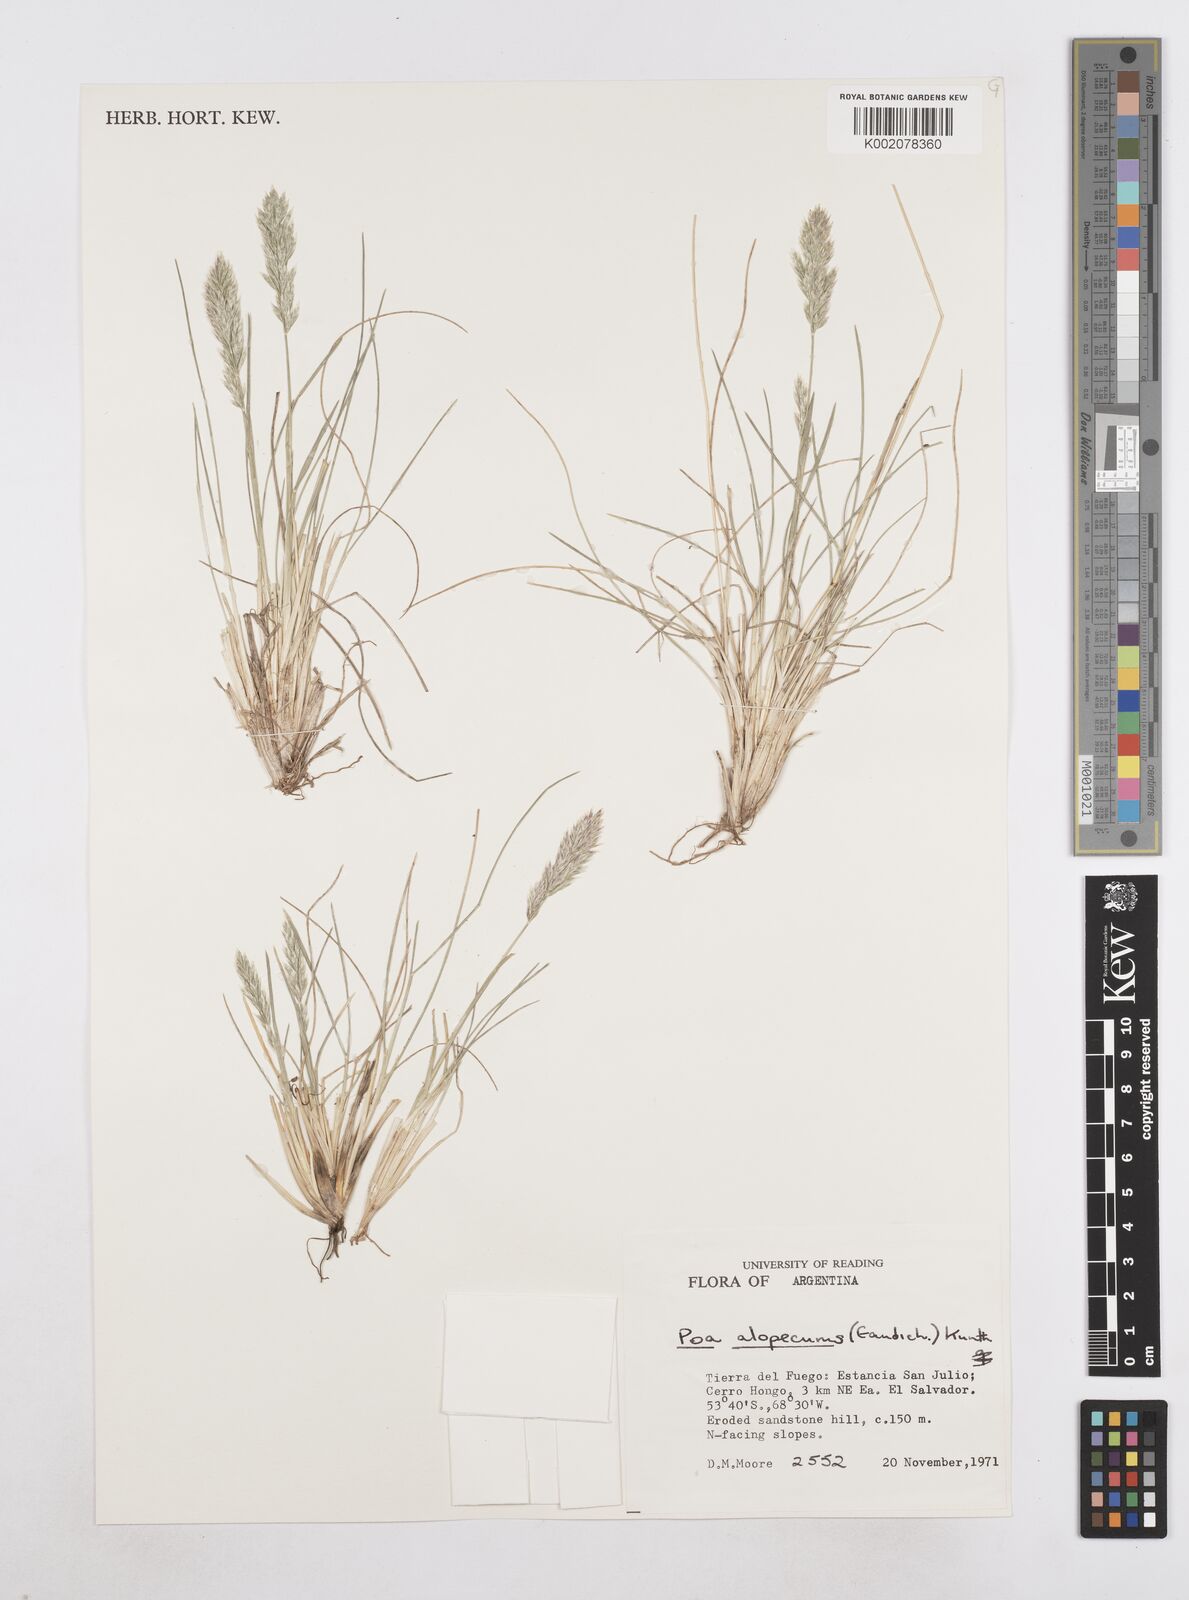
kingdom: Plantae
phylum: Tracheophyta
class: Liliopsida
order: Poales
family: Poaceae
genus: Poa
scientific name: Poa alopecurus
